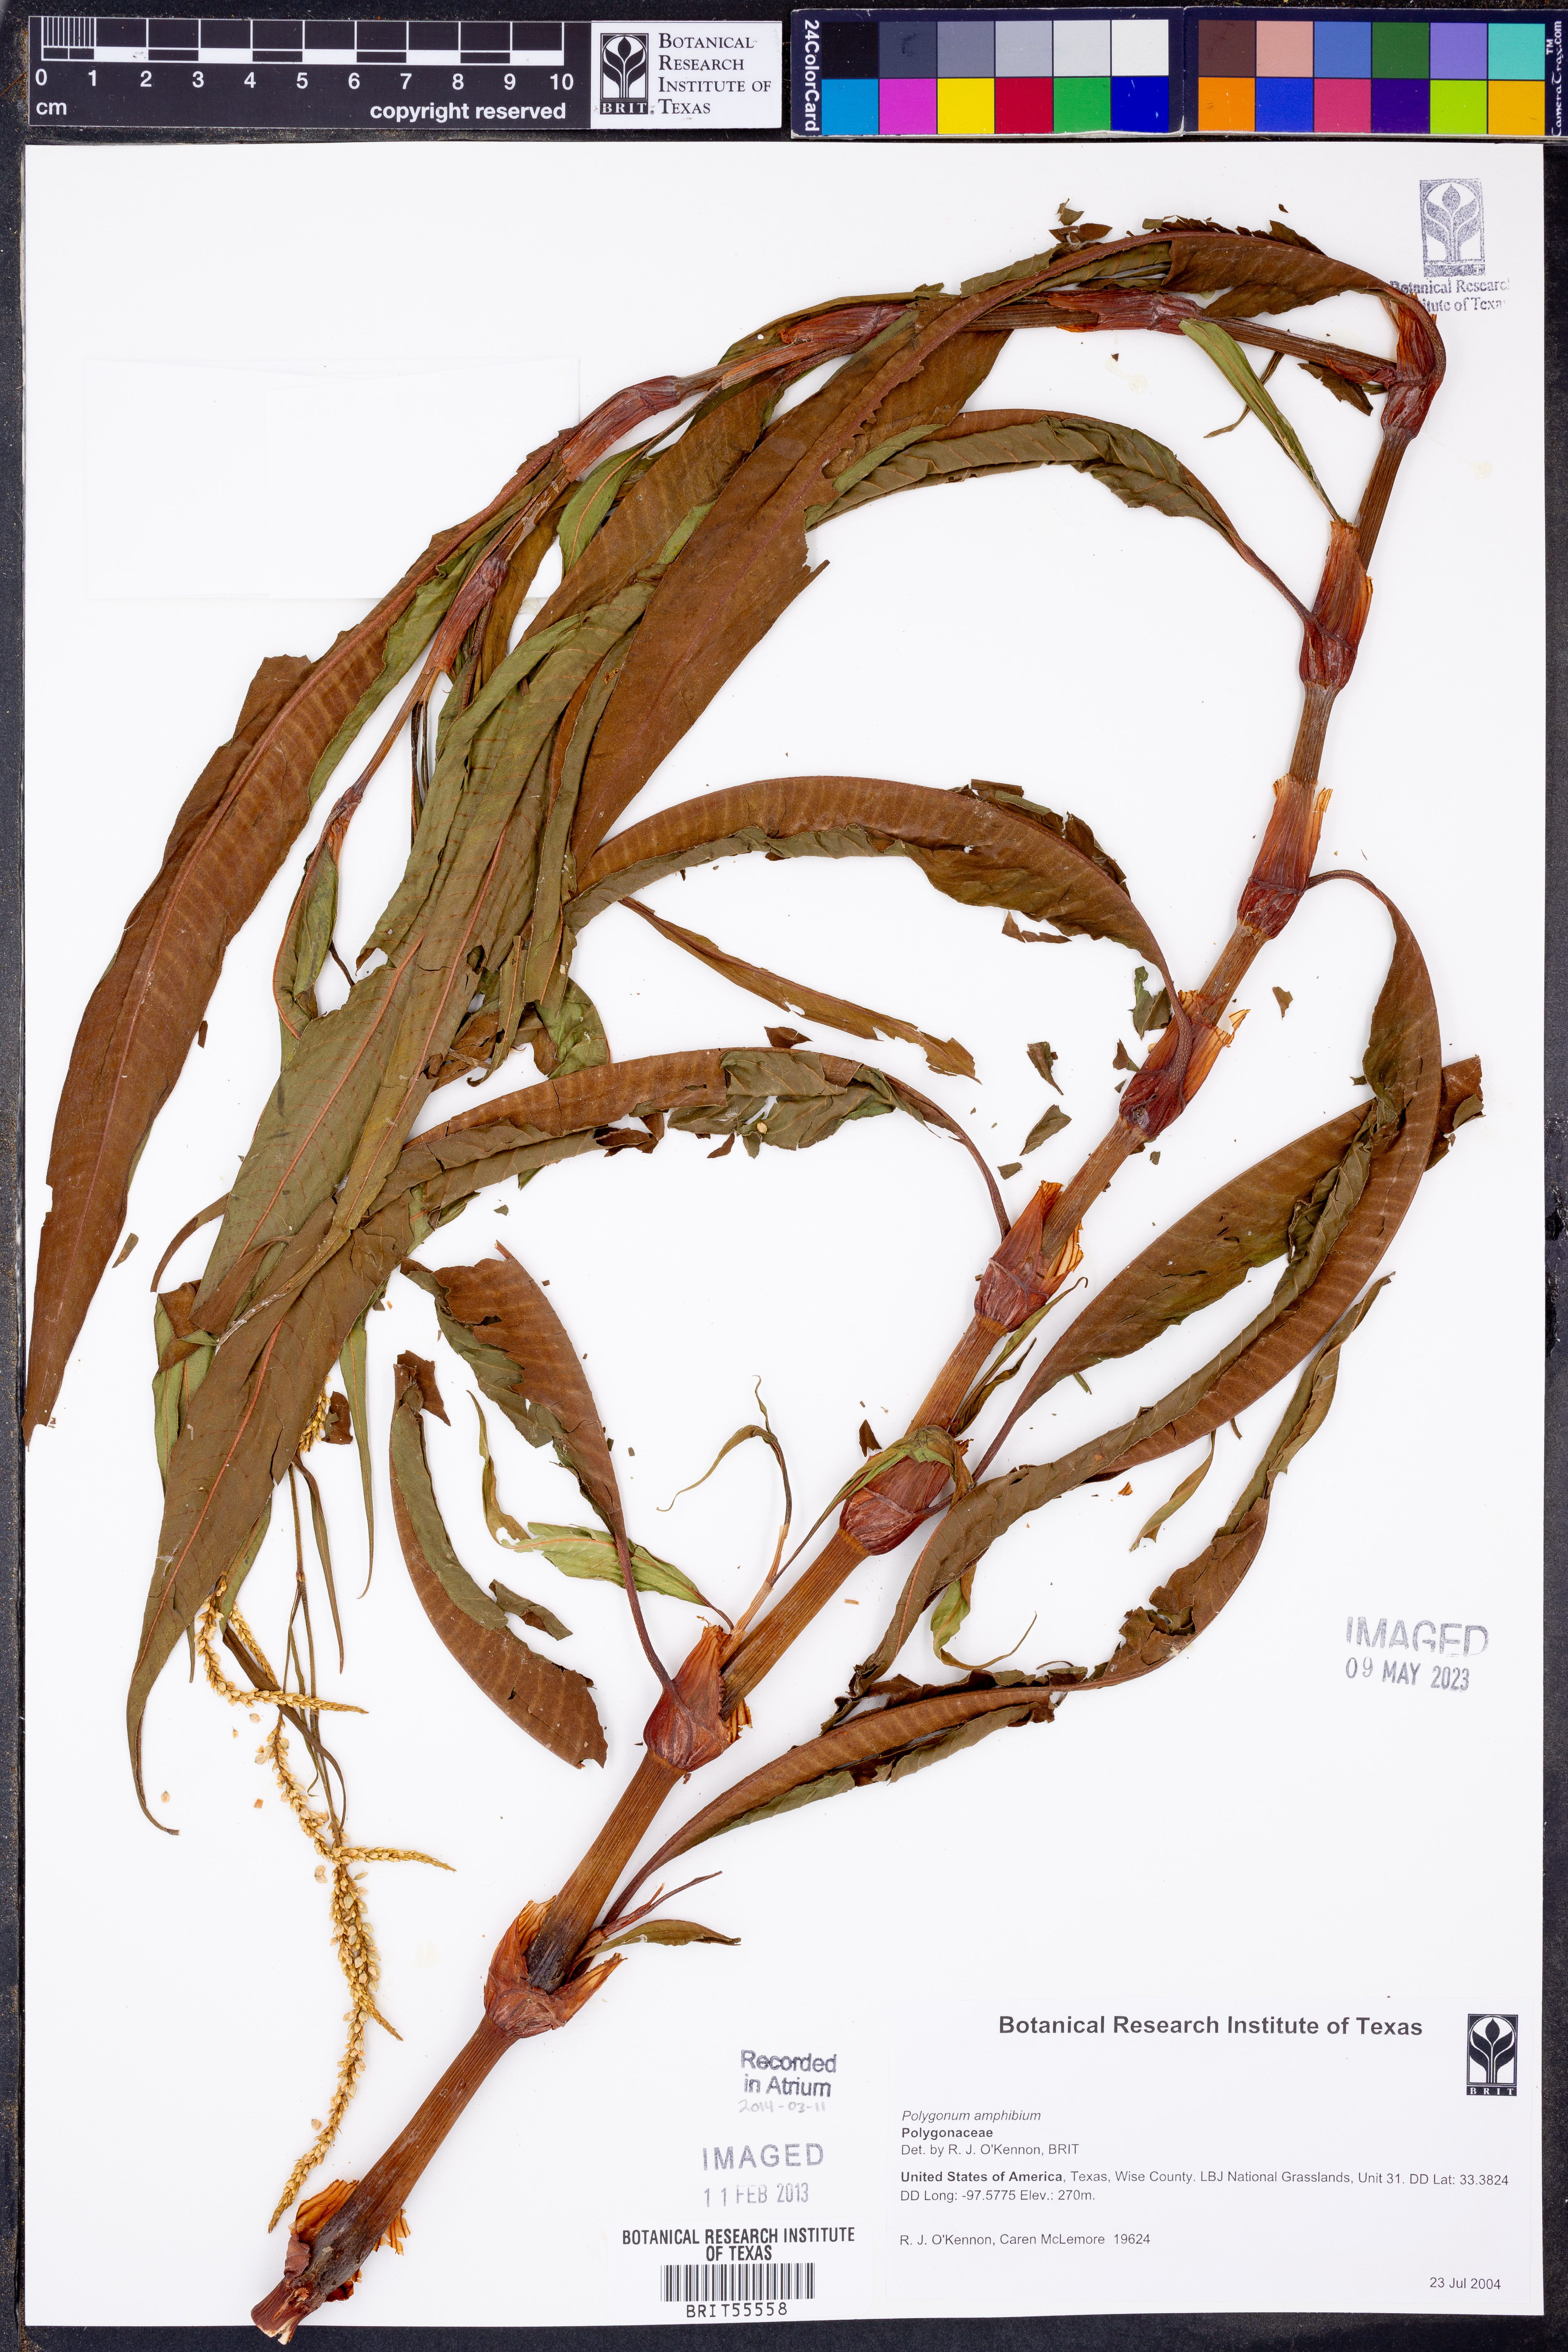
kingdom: Plantae
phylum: Tracheophyta
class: Magnoliopsida
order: Caryophyllales
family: Polygonaceae
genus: Persicaria
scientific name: Persicaria amphibia
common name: Amphibious bistort
